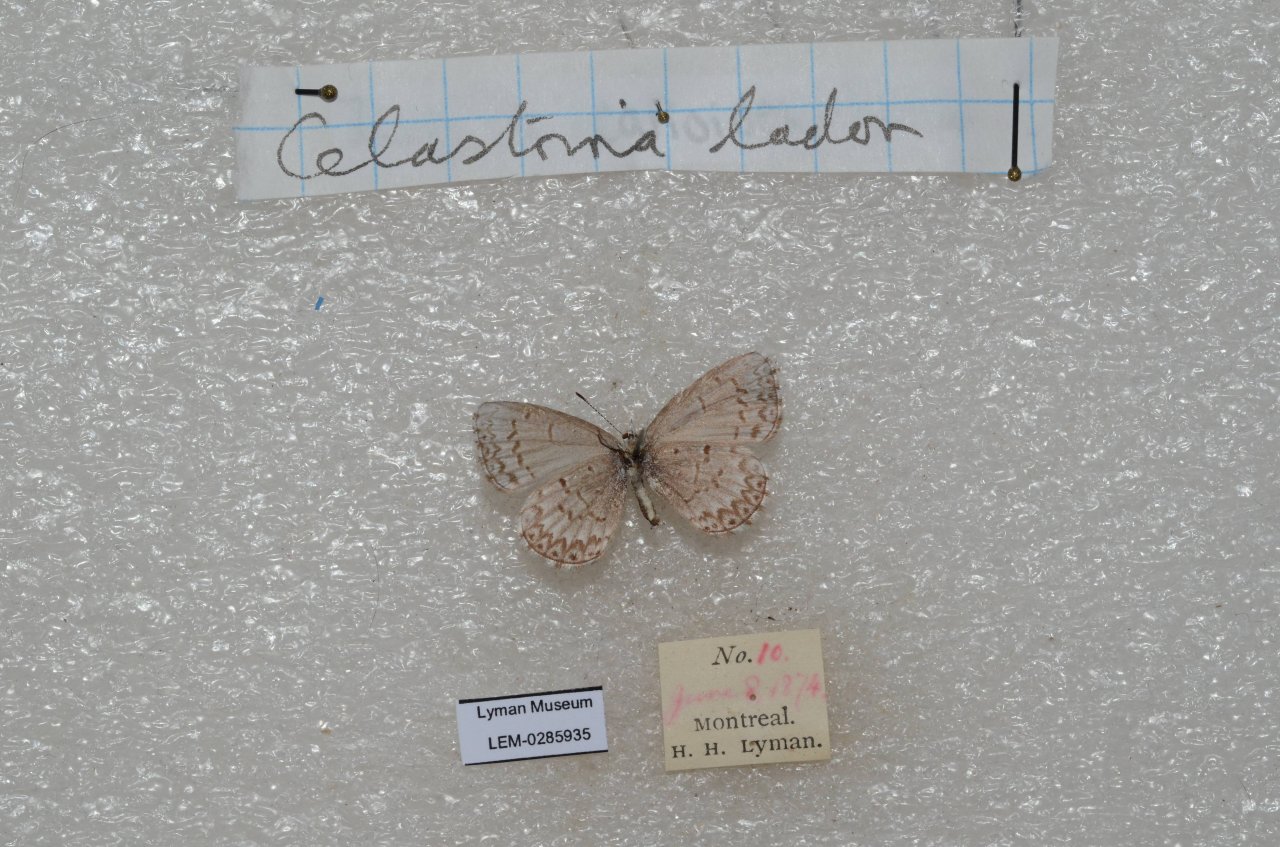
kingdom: Animalia
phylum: Arthropoda
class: Insecta
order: Lepidoptera
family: Lycaenidae
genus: Celastrina
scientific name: Celastrina
